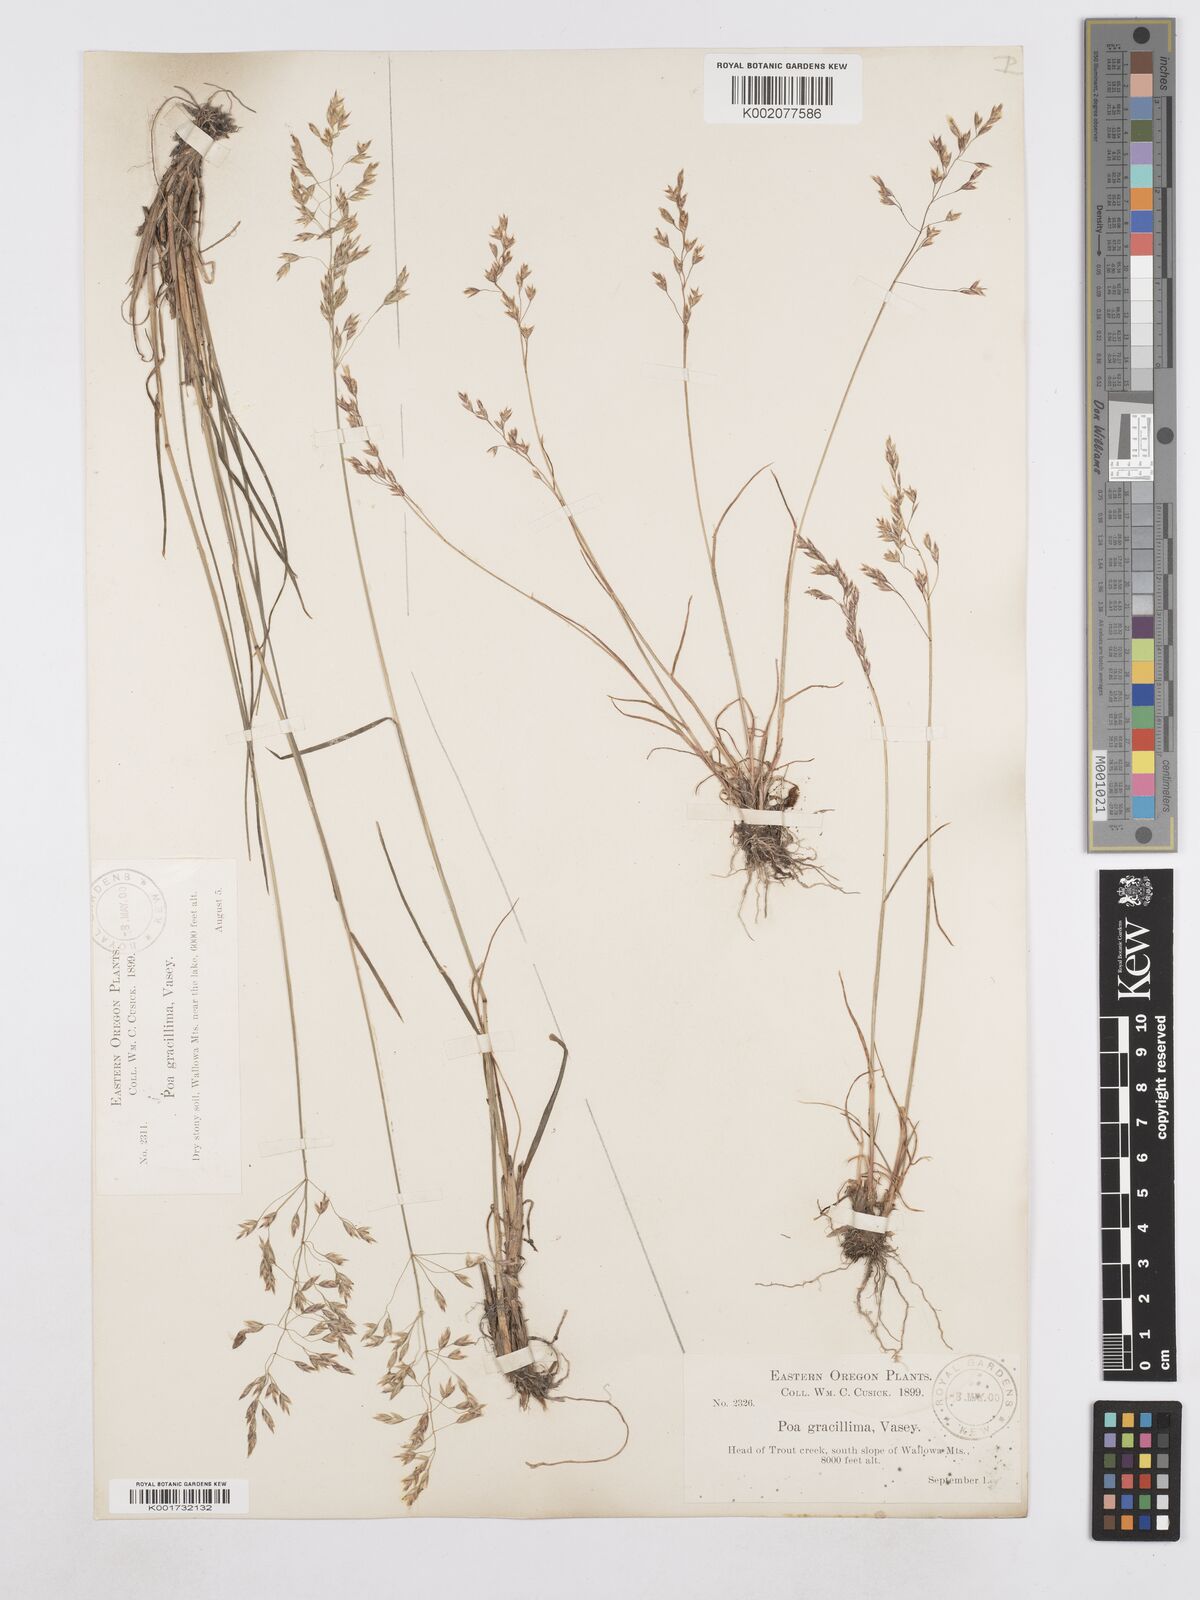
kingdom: Plantae
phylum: Tracheophyta
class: Liliopsida
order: Poales
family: Poaceae
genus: Poa
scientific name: Poa secunda
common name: Sandberg bluegrass
